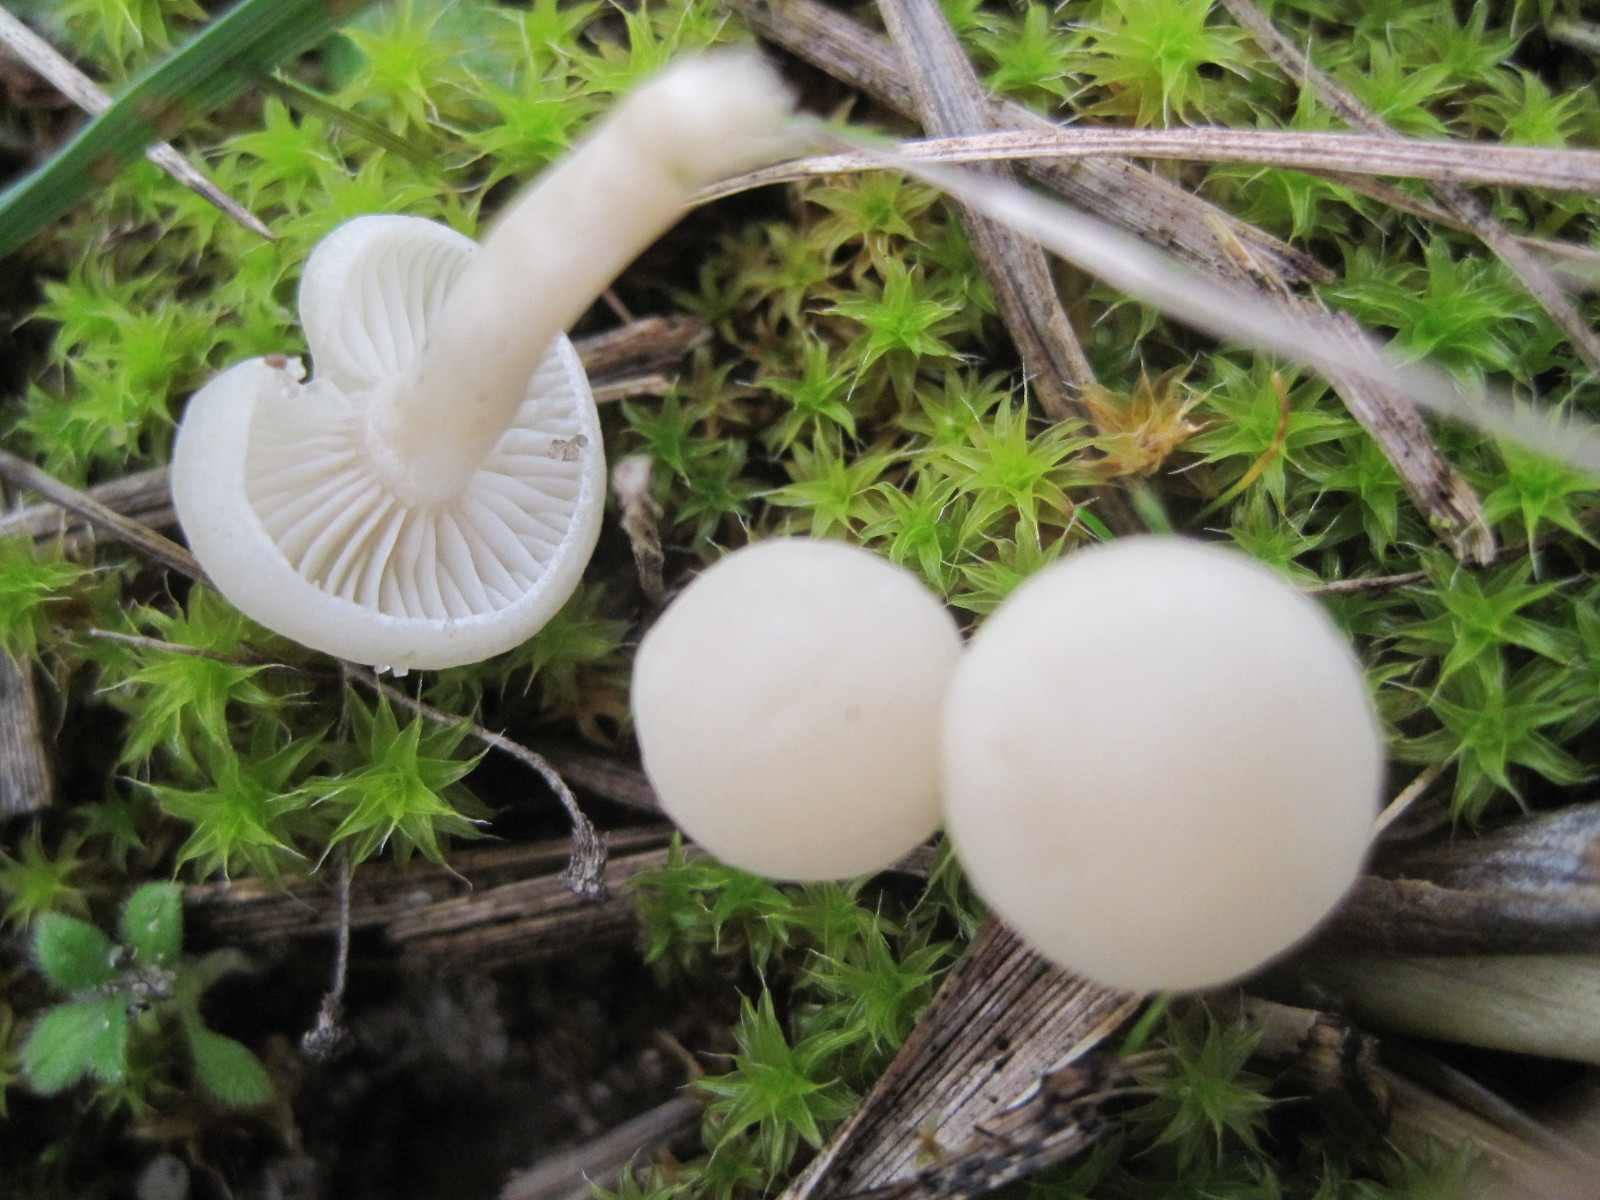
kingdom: Fungi
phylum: Basidiomycota
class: Agaricomycetes
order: Agaricales
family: Hygrophoraceae
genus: Cuphophyllus
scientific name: Cuphophyllus virgineus
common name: snehvid vokshat
